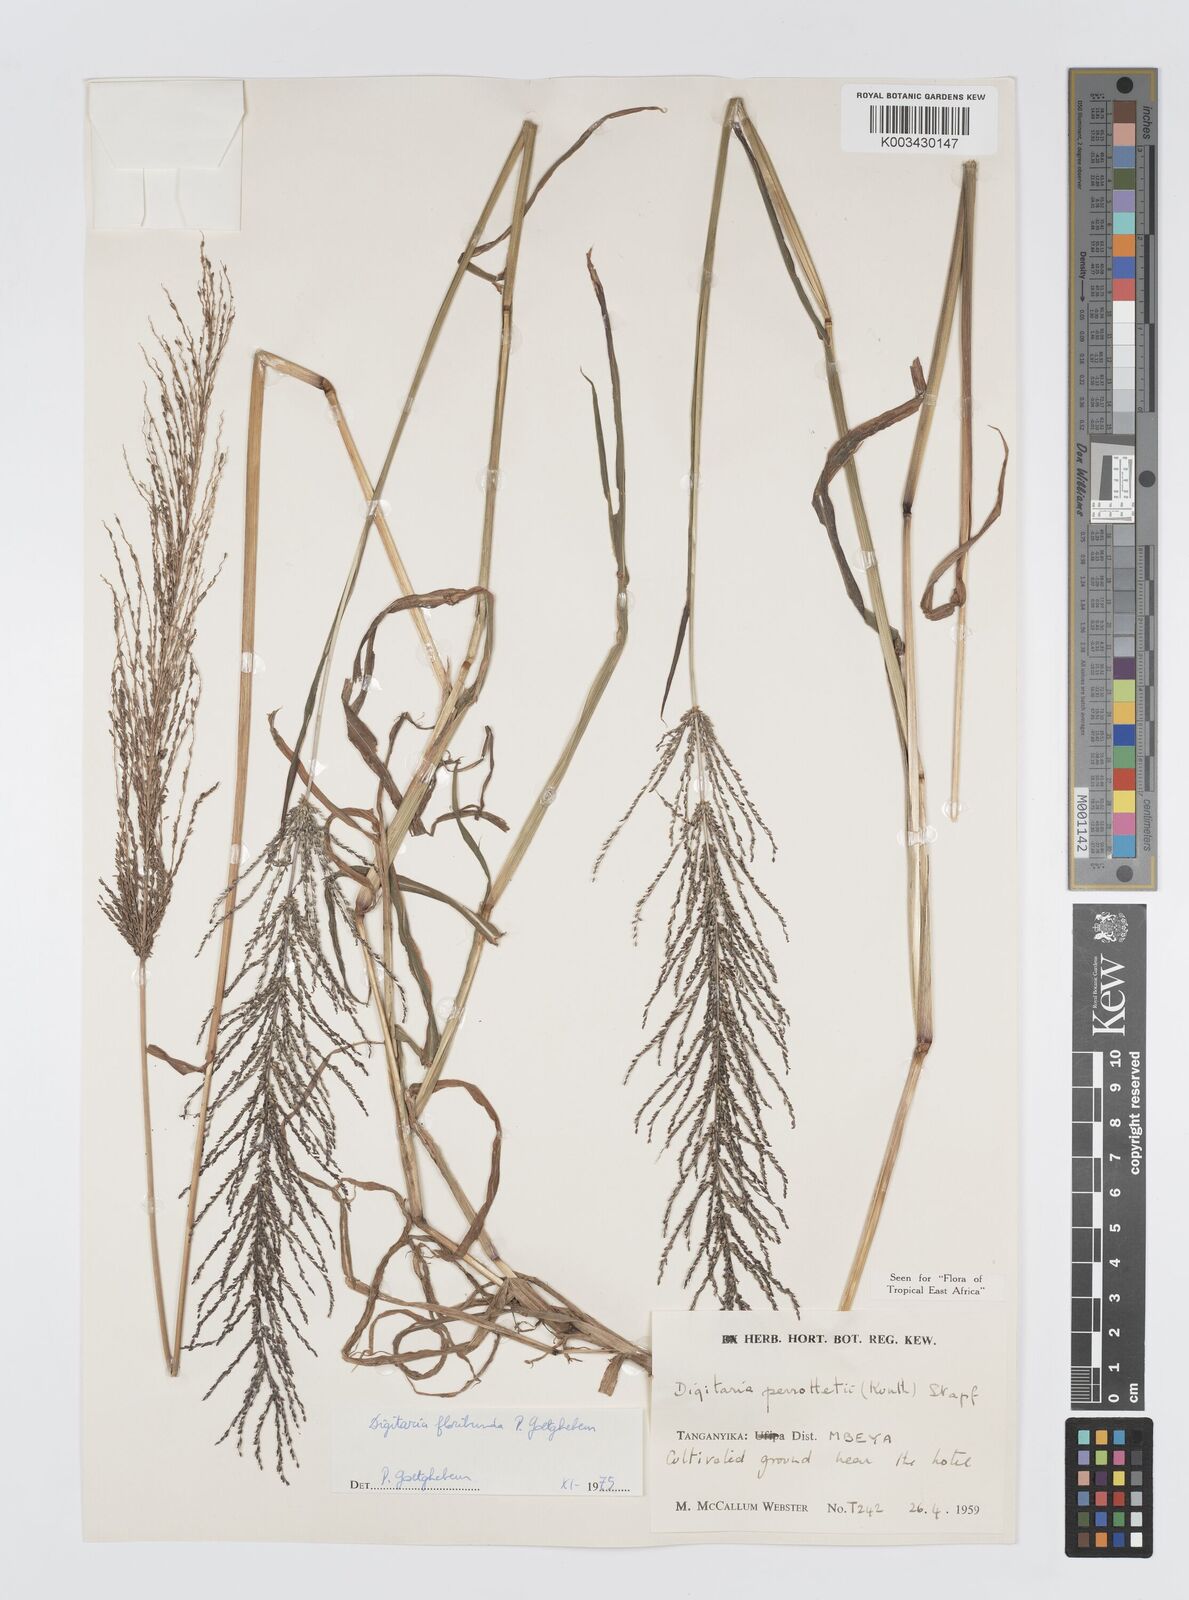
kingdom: Plantae
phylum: Tracheophyta
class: Liliopsida
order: Poales
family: Poaceae
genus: Digitaria
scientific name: Digitaria perrottetii
